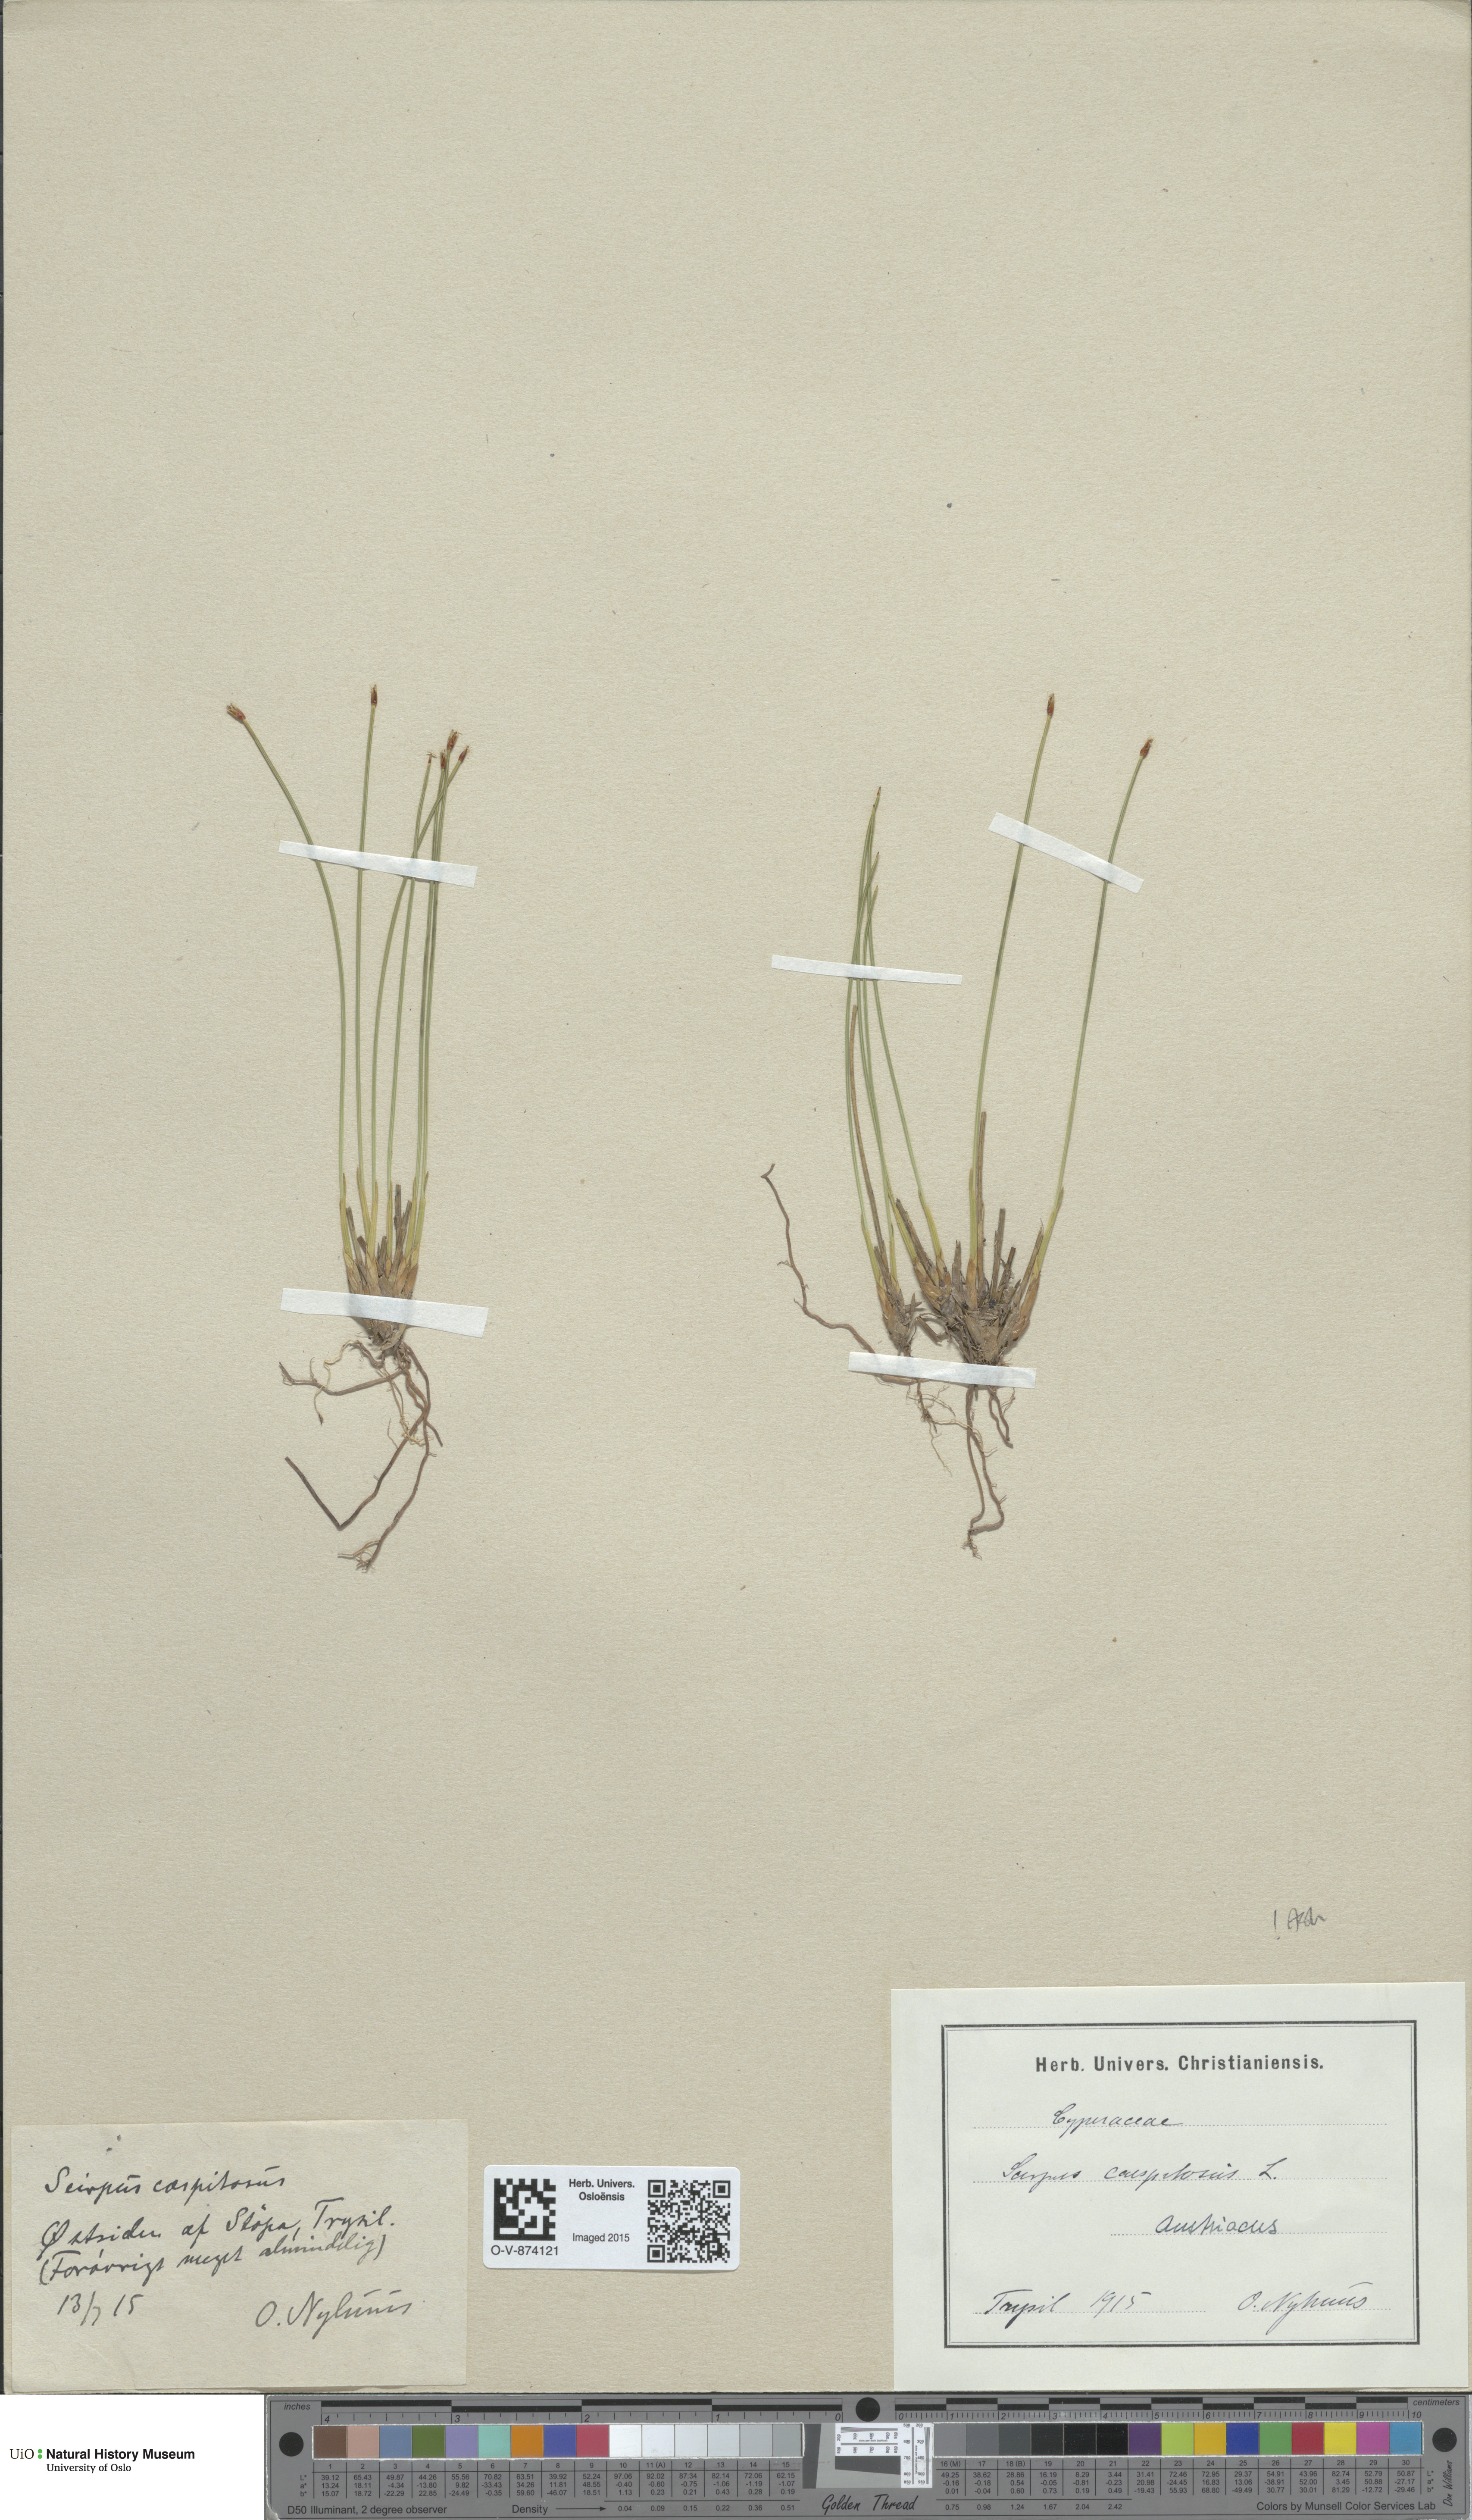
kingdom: Plantae
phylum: Tracheophyta
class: Liliopsida
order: Poales
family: Cyperaceae
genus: Trichophorum
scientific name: Trichophorum cespitosum
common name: Cespitose bulrush
